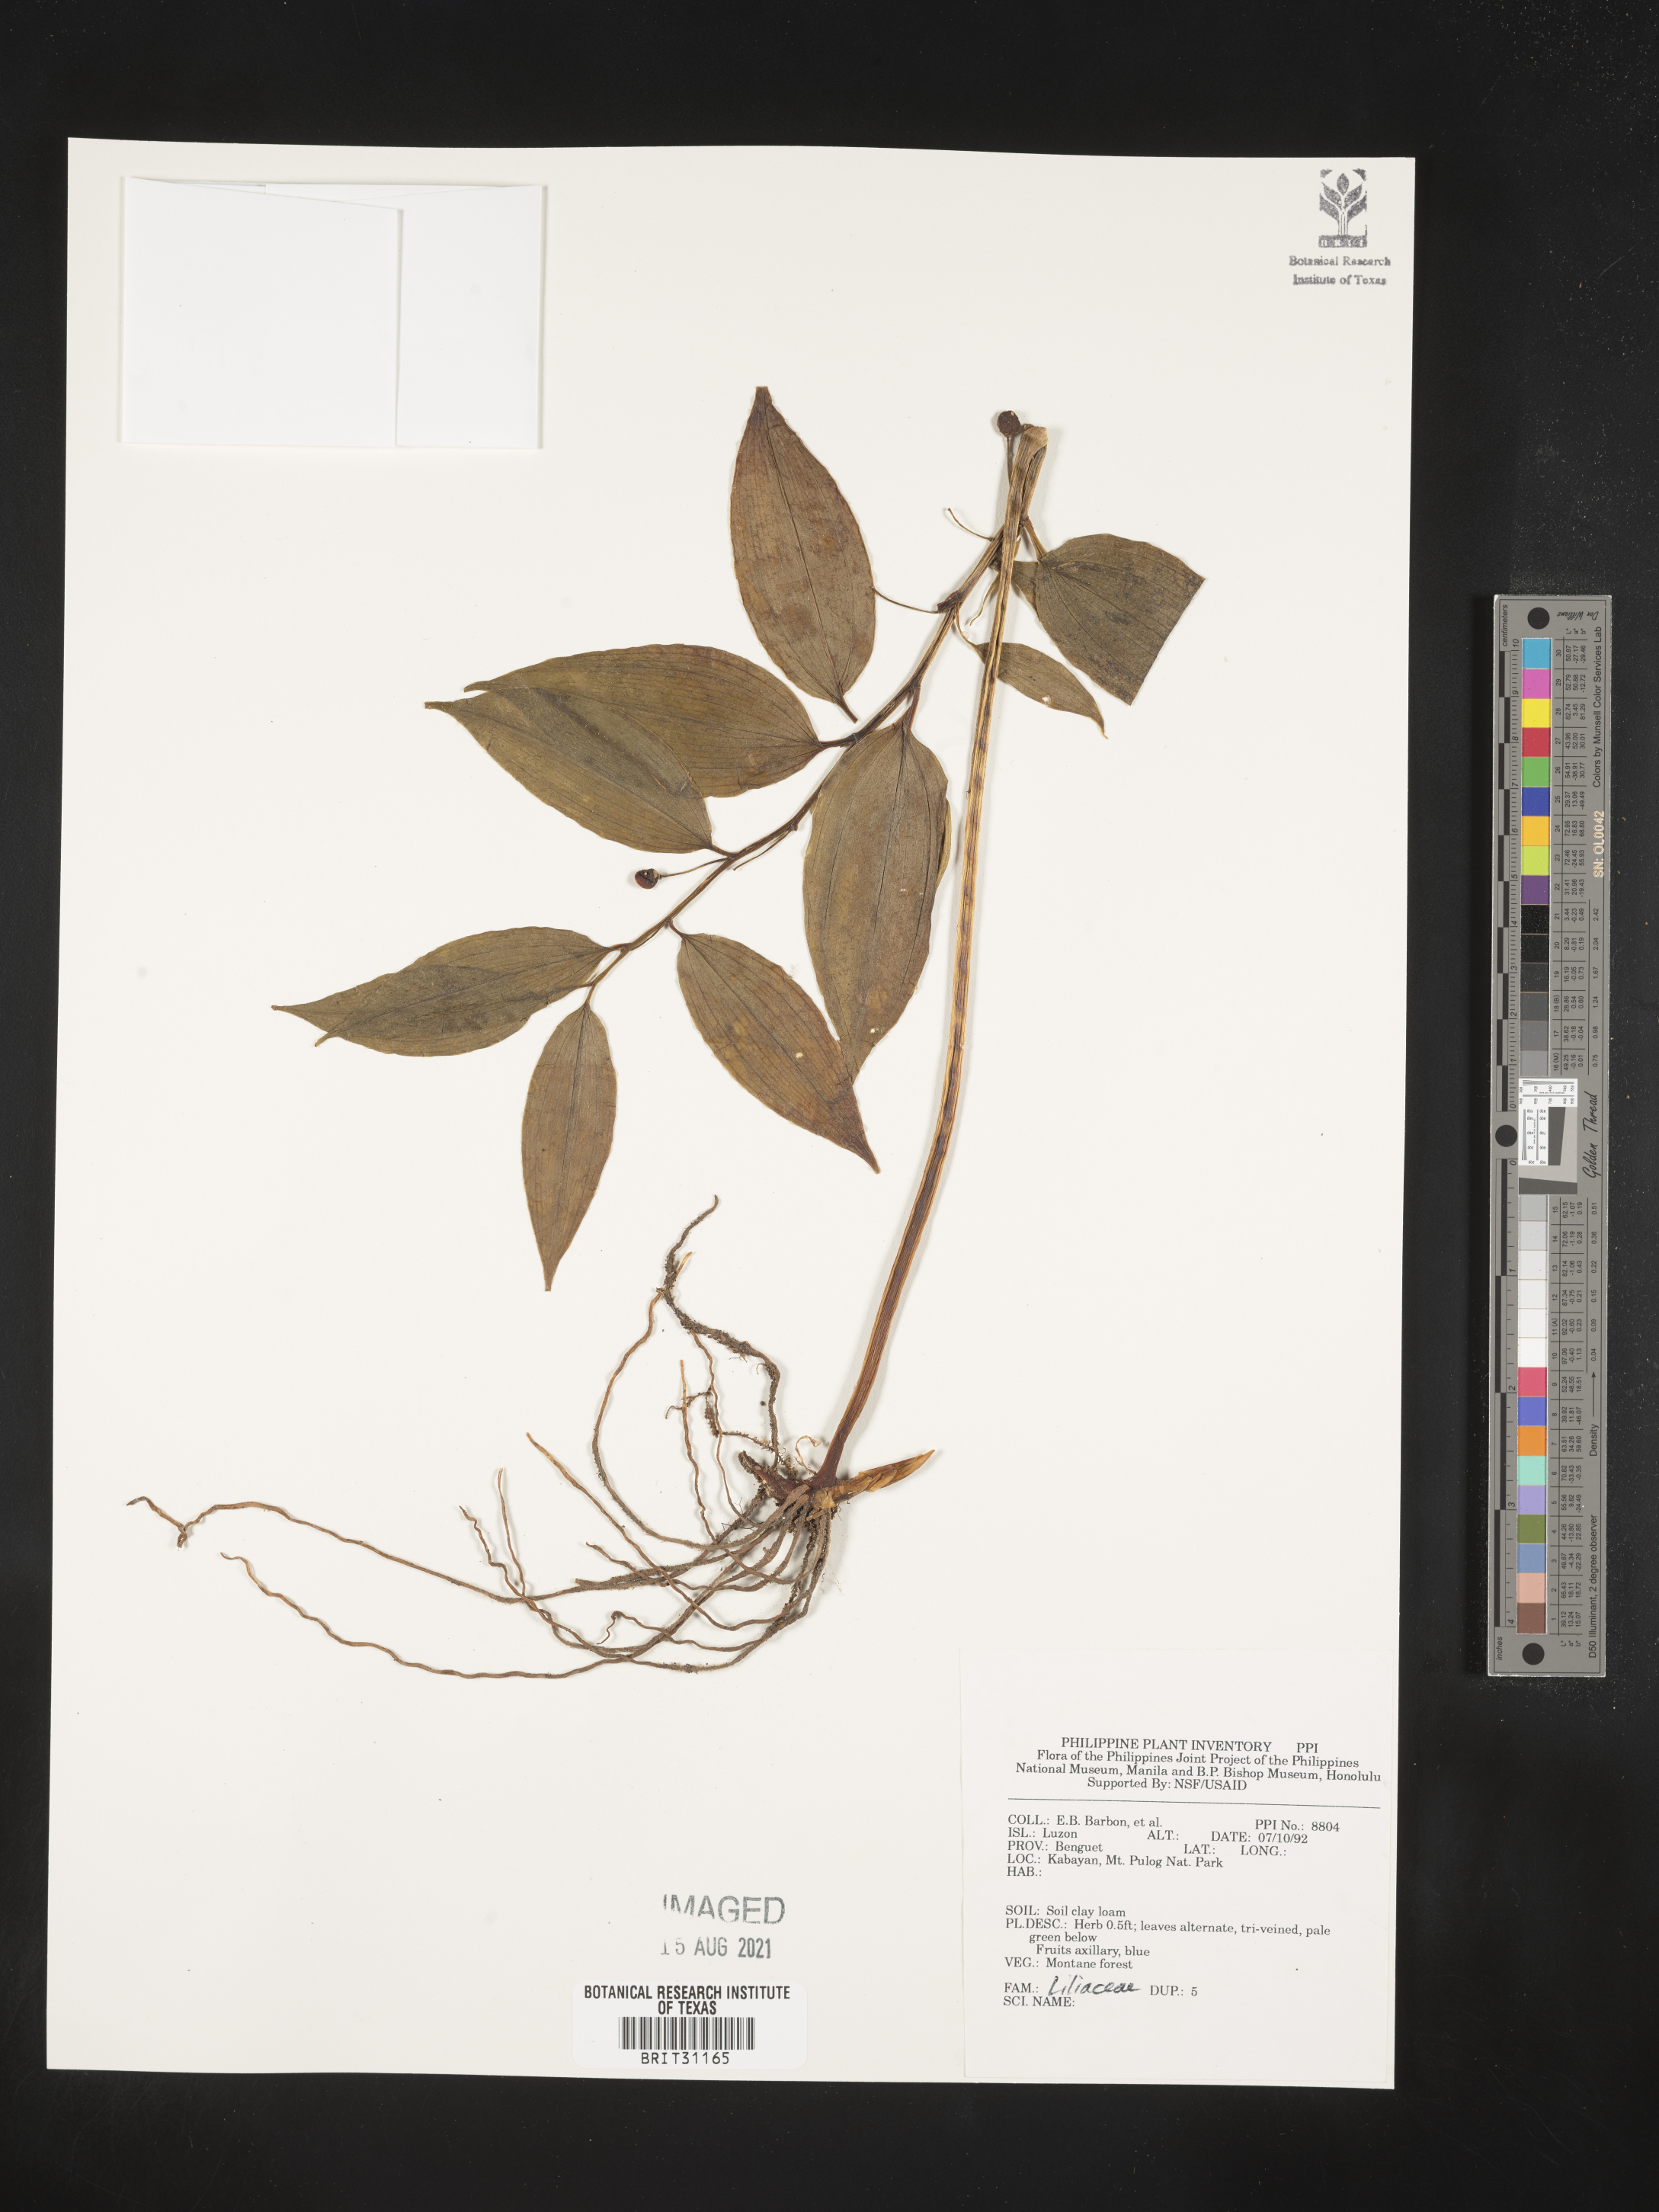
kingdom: Plantae
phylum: Tracheophyta
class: Liliopsida
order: Liliales
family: Liliaceae
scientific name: Liliaceae
